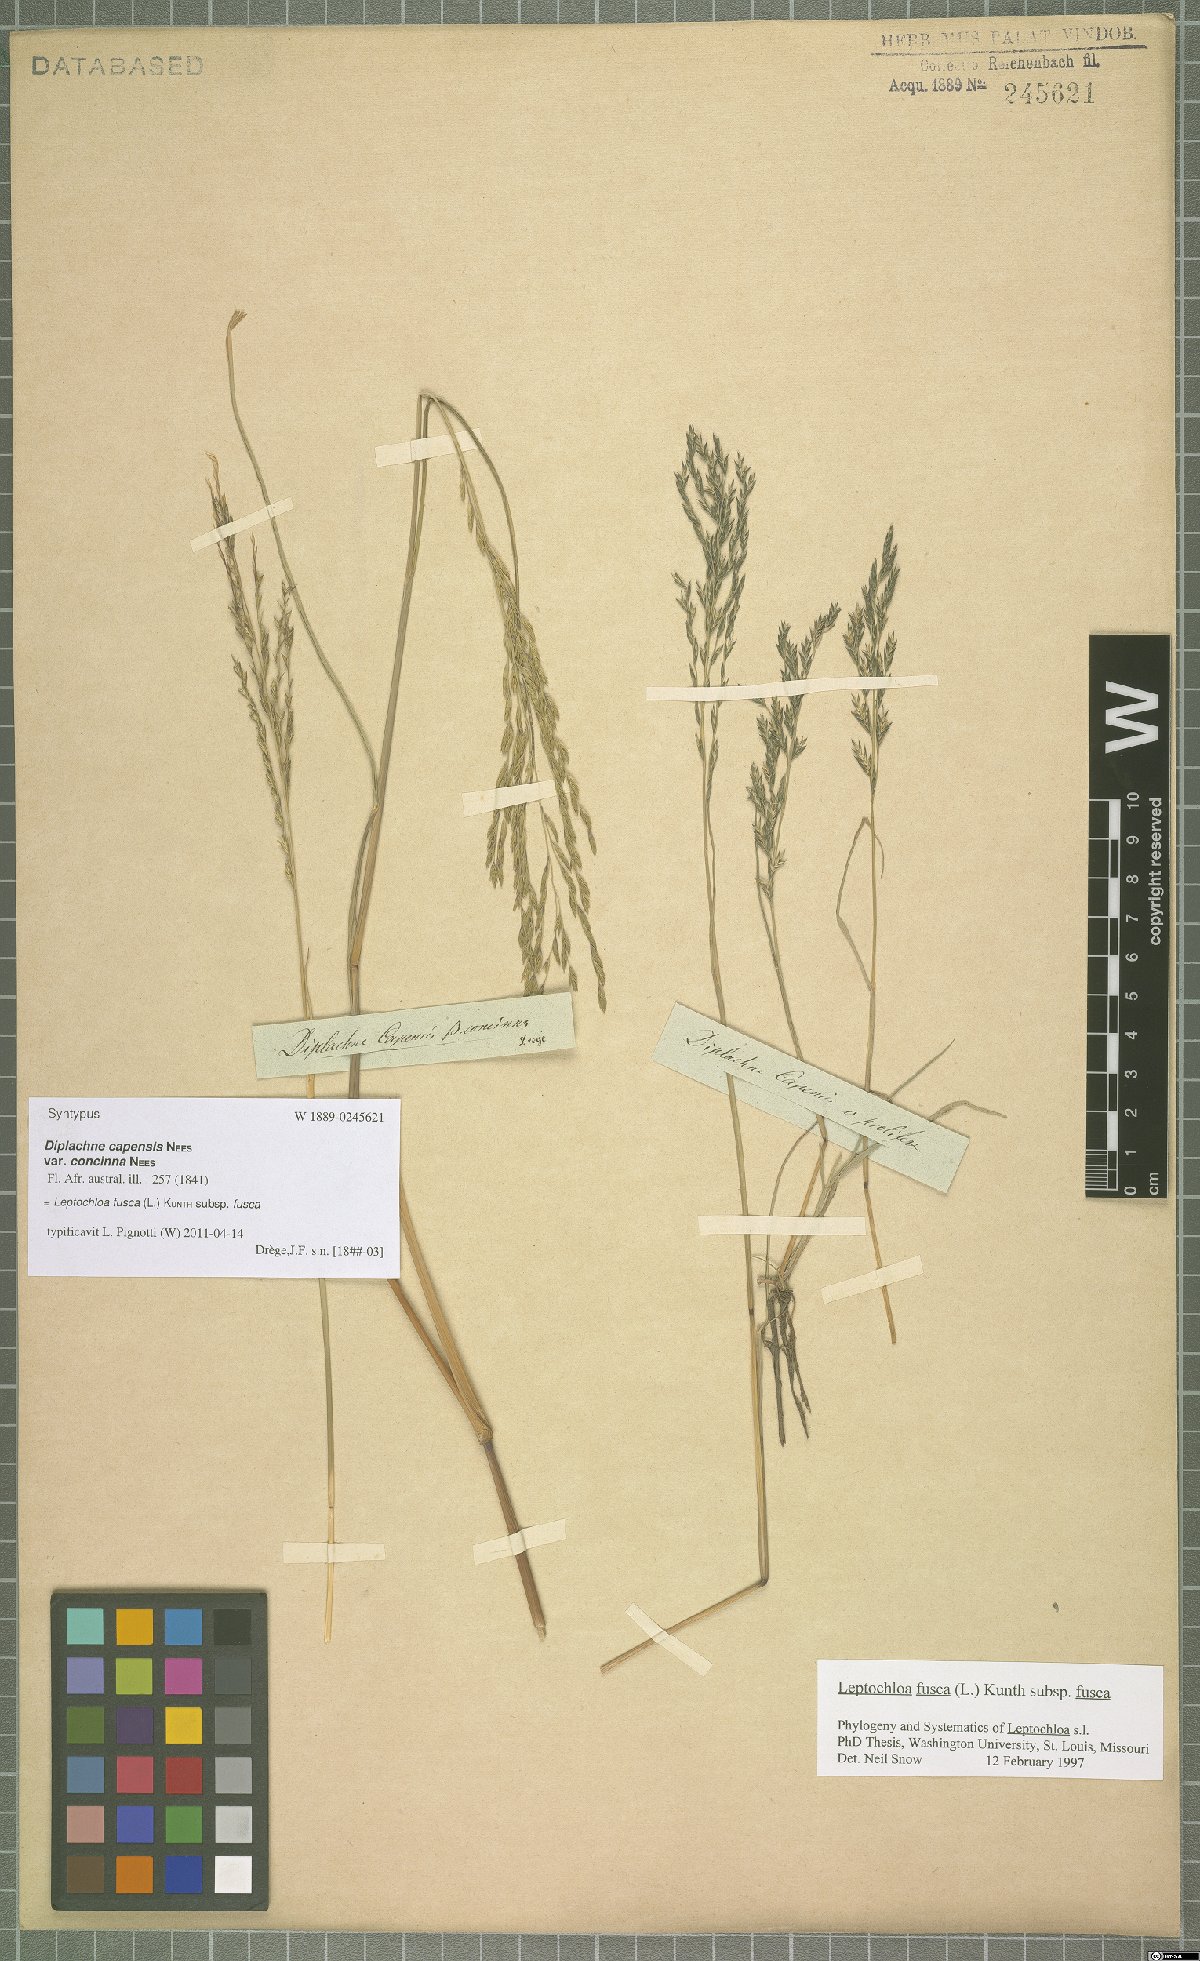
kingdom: Plantae
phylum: Tracheophyta
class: Liliopsida
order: Poales
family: Poaceae
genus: Diplachne
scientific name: Diplachne fusca
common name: Brown beetle grass
